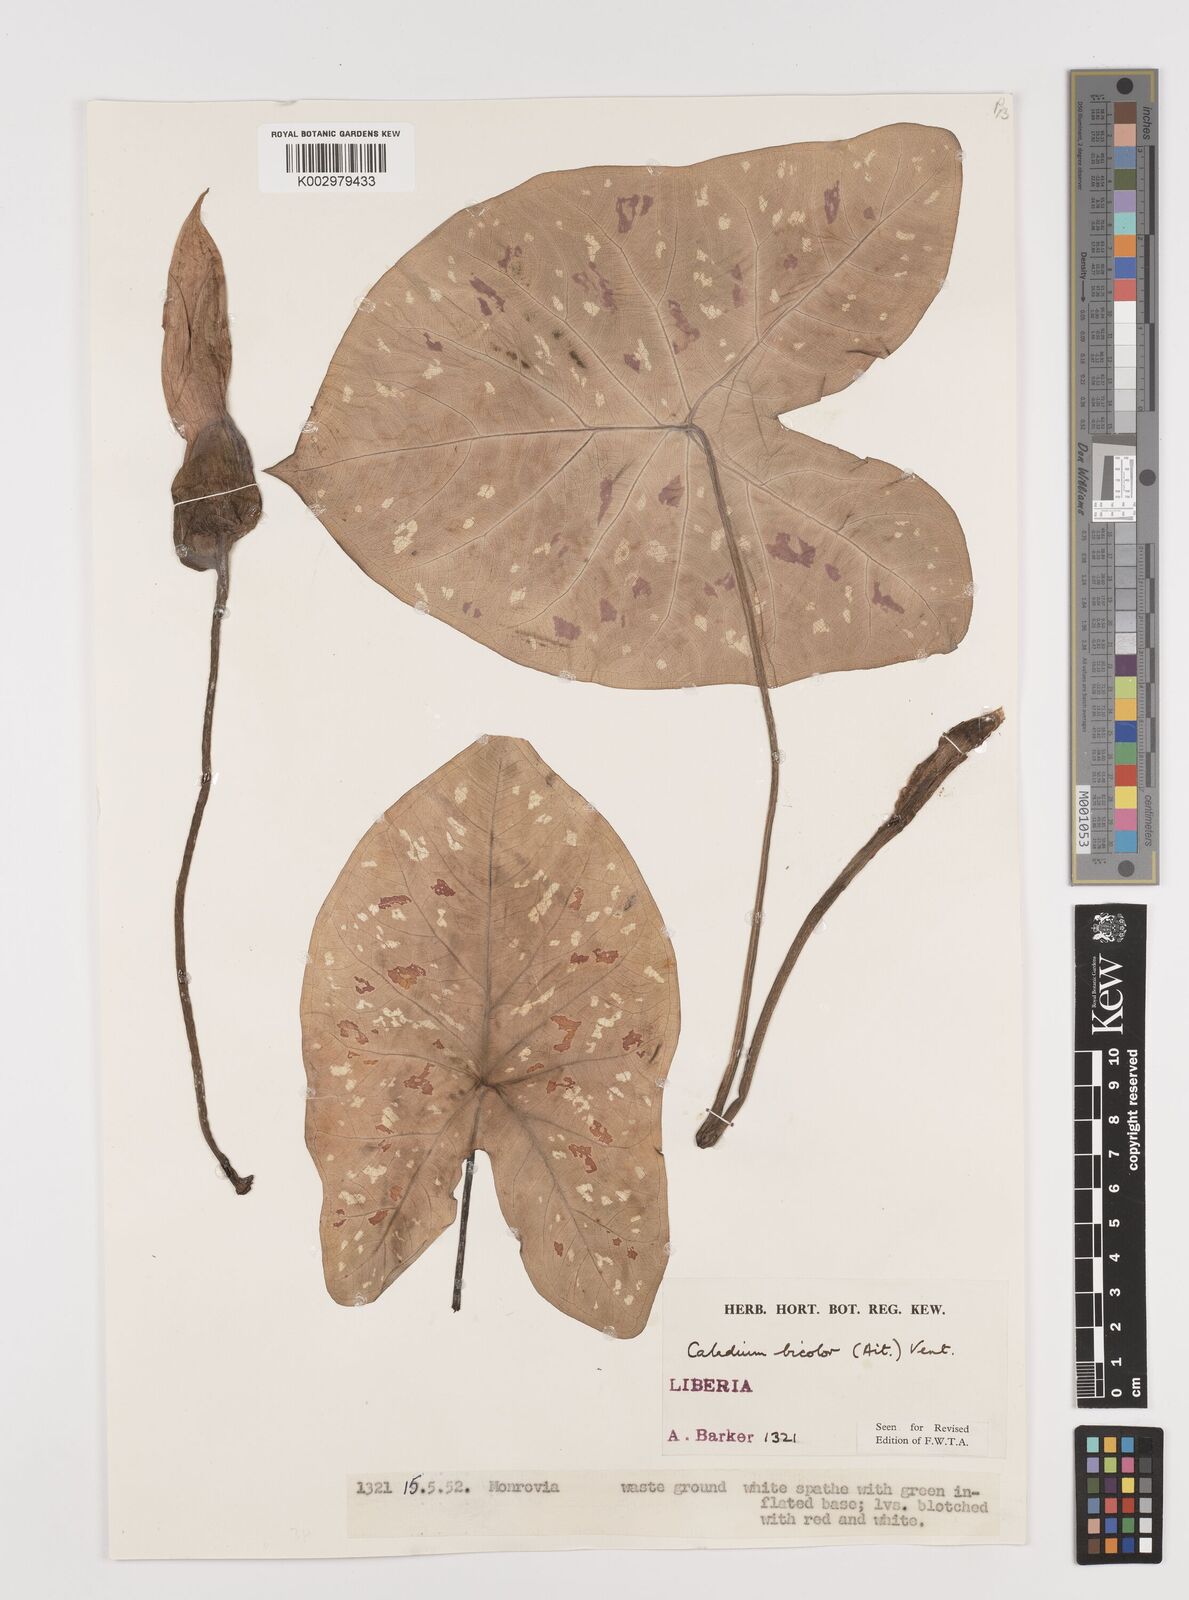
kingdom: Plantae
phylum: Tracheophyta
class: Liliopsida
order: Alismatales
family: Araceae
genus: Caladium
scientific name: Caladium bicolor
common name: Artist's pallet
